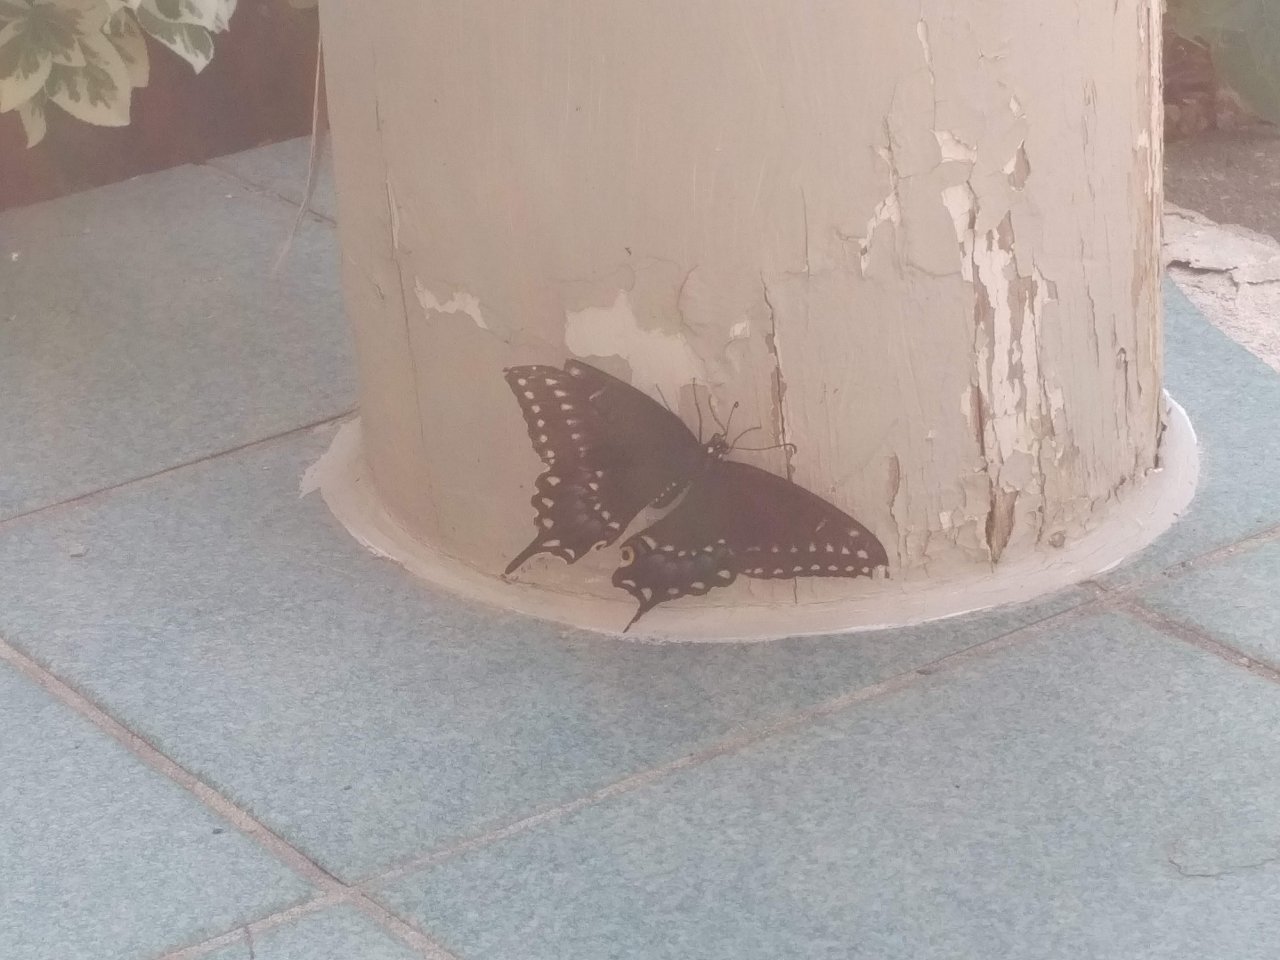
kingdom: Animalia
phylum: Arthropoda
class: Insecta
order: Lepidoptera
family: Papilionidae
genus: Papilio
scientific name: Papilio polyxenes
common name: Black Swallowtail
